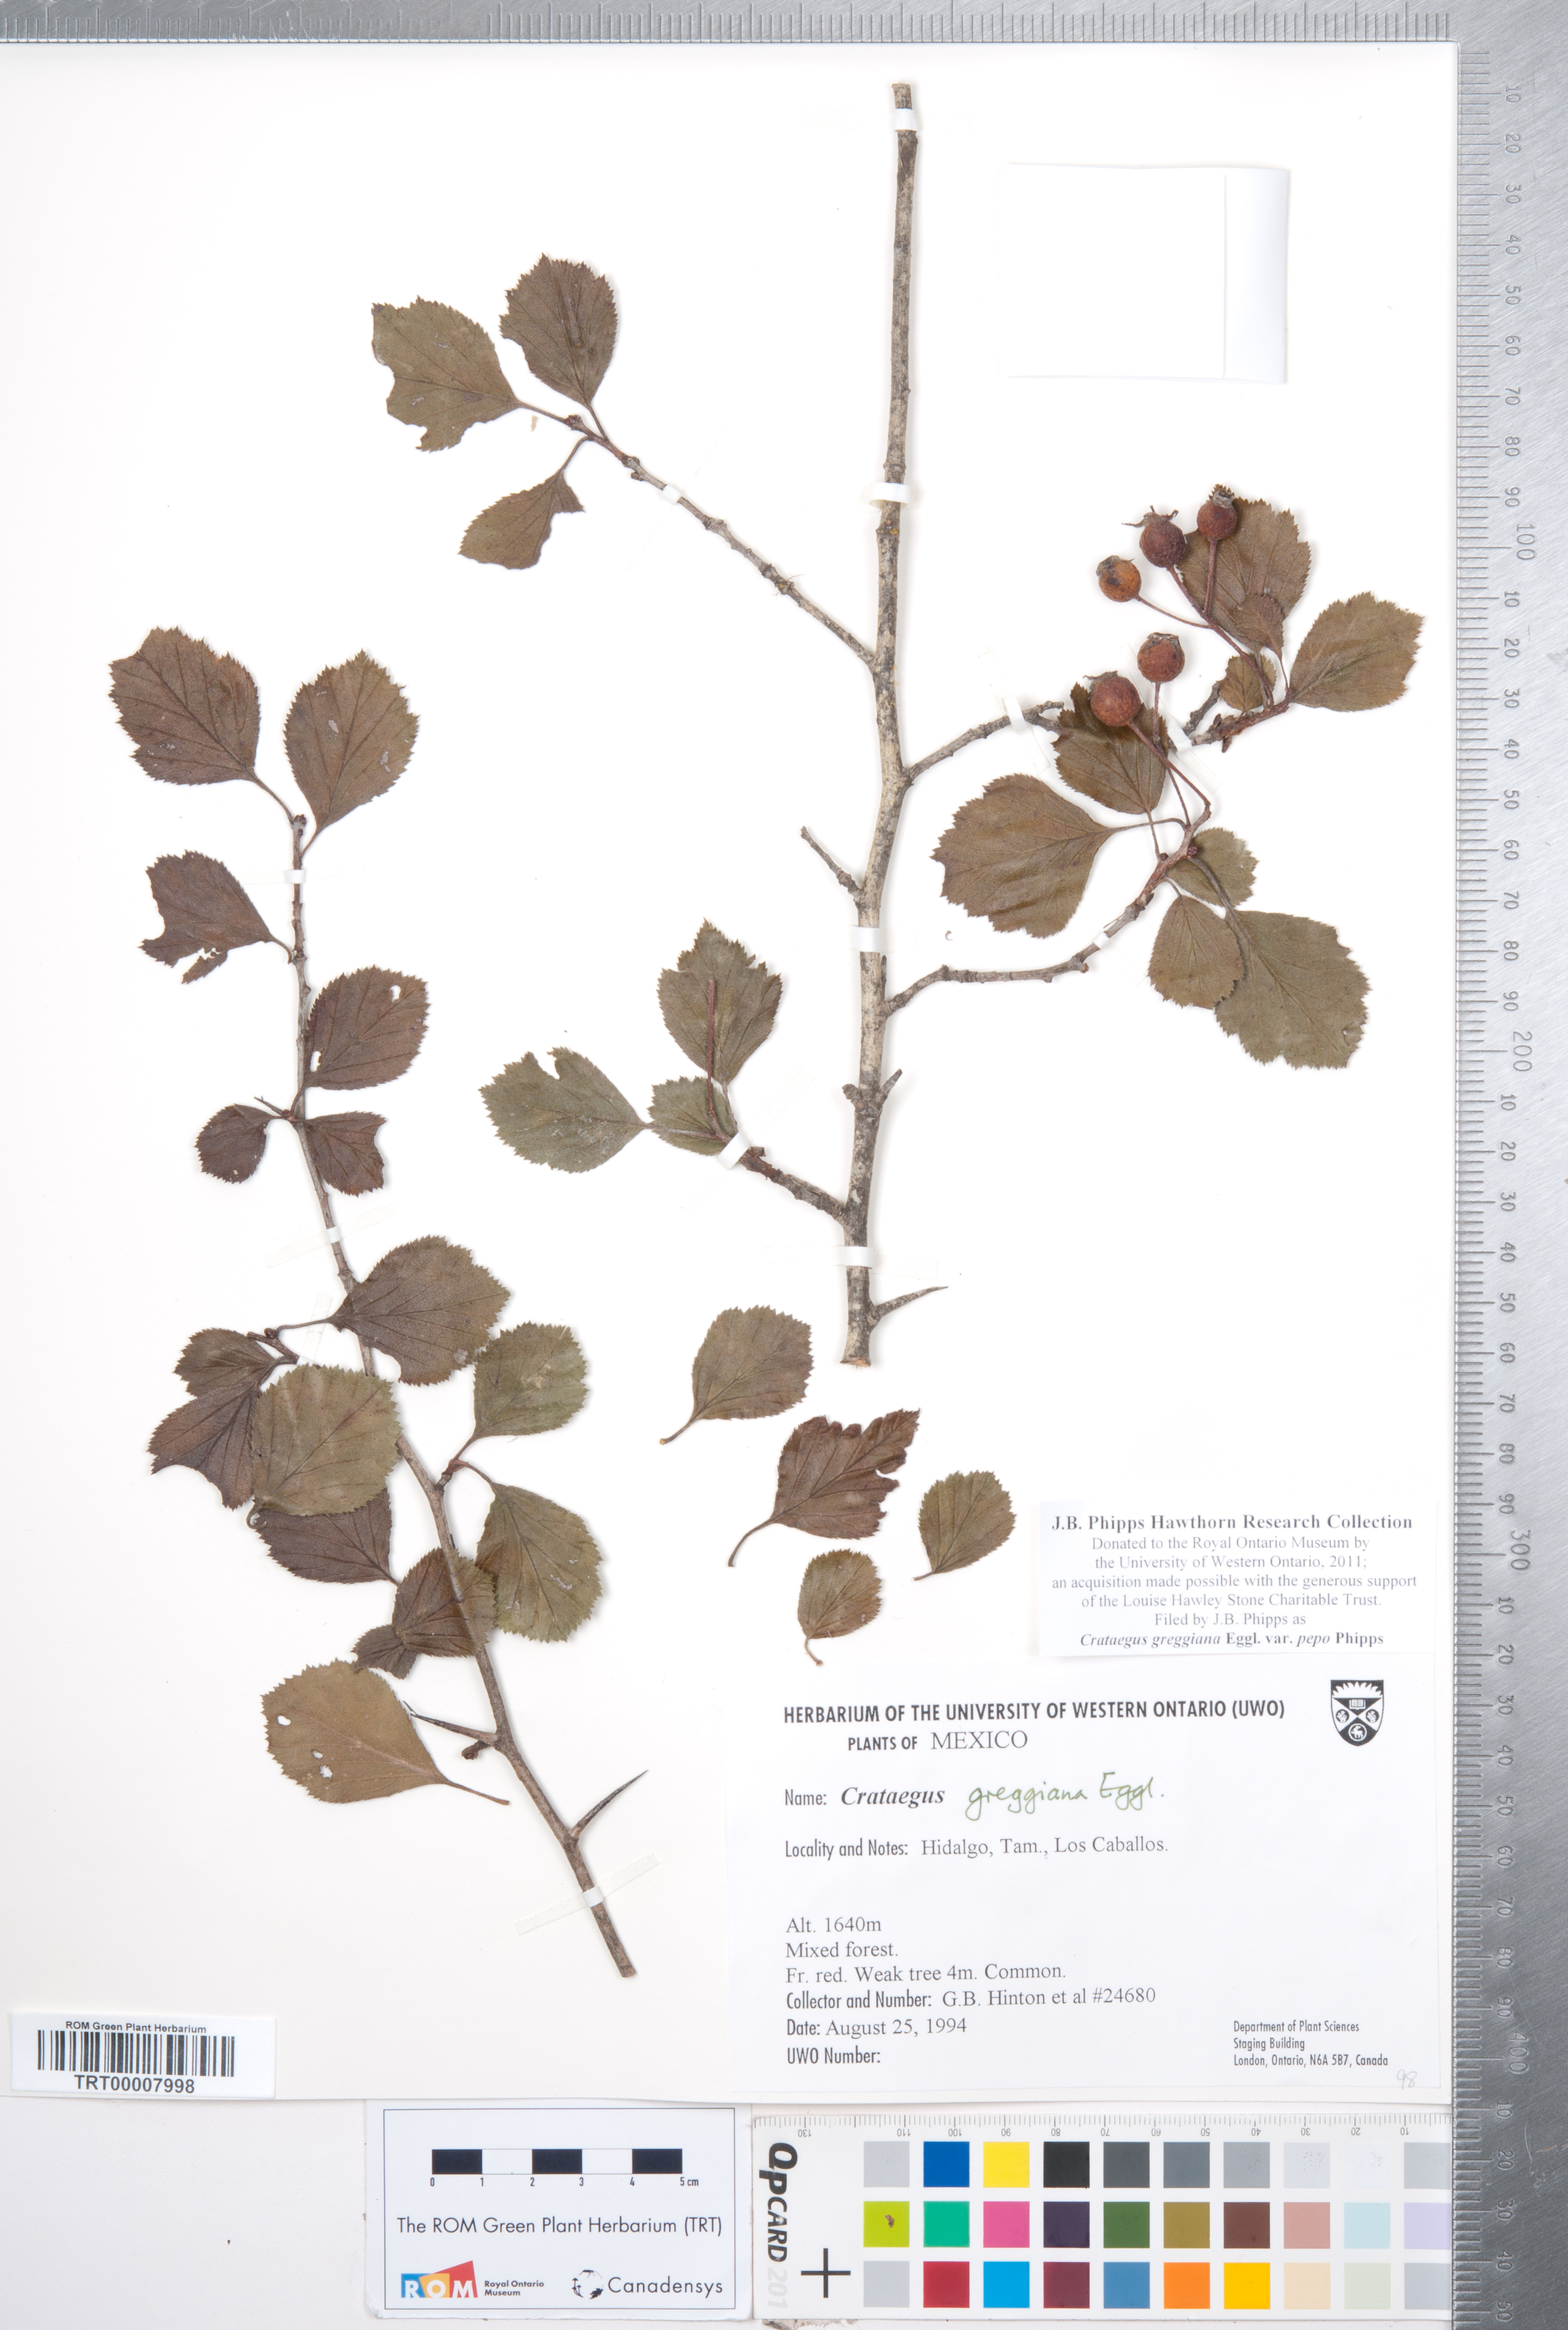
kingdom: Plantae
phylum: Tracheophyta
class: Magnoliopsida
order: Rosales
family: Rosaceae
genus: Crataegus
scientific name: Crataegus greggiana
